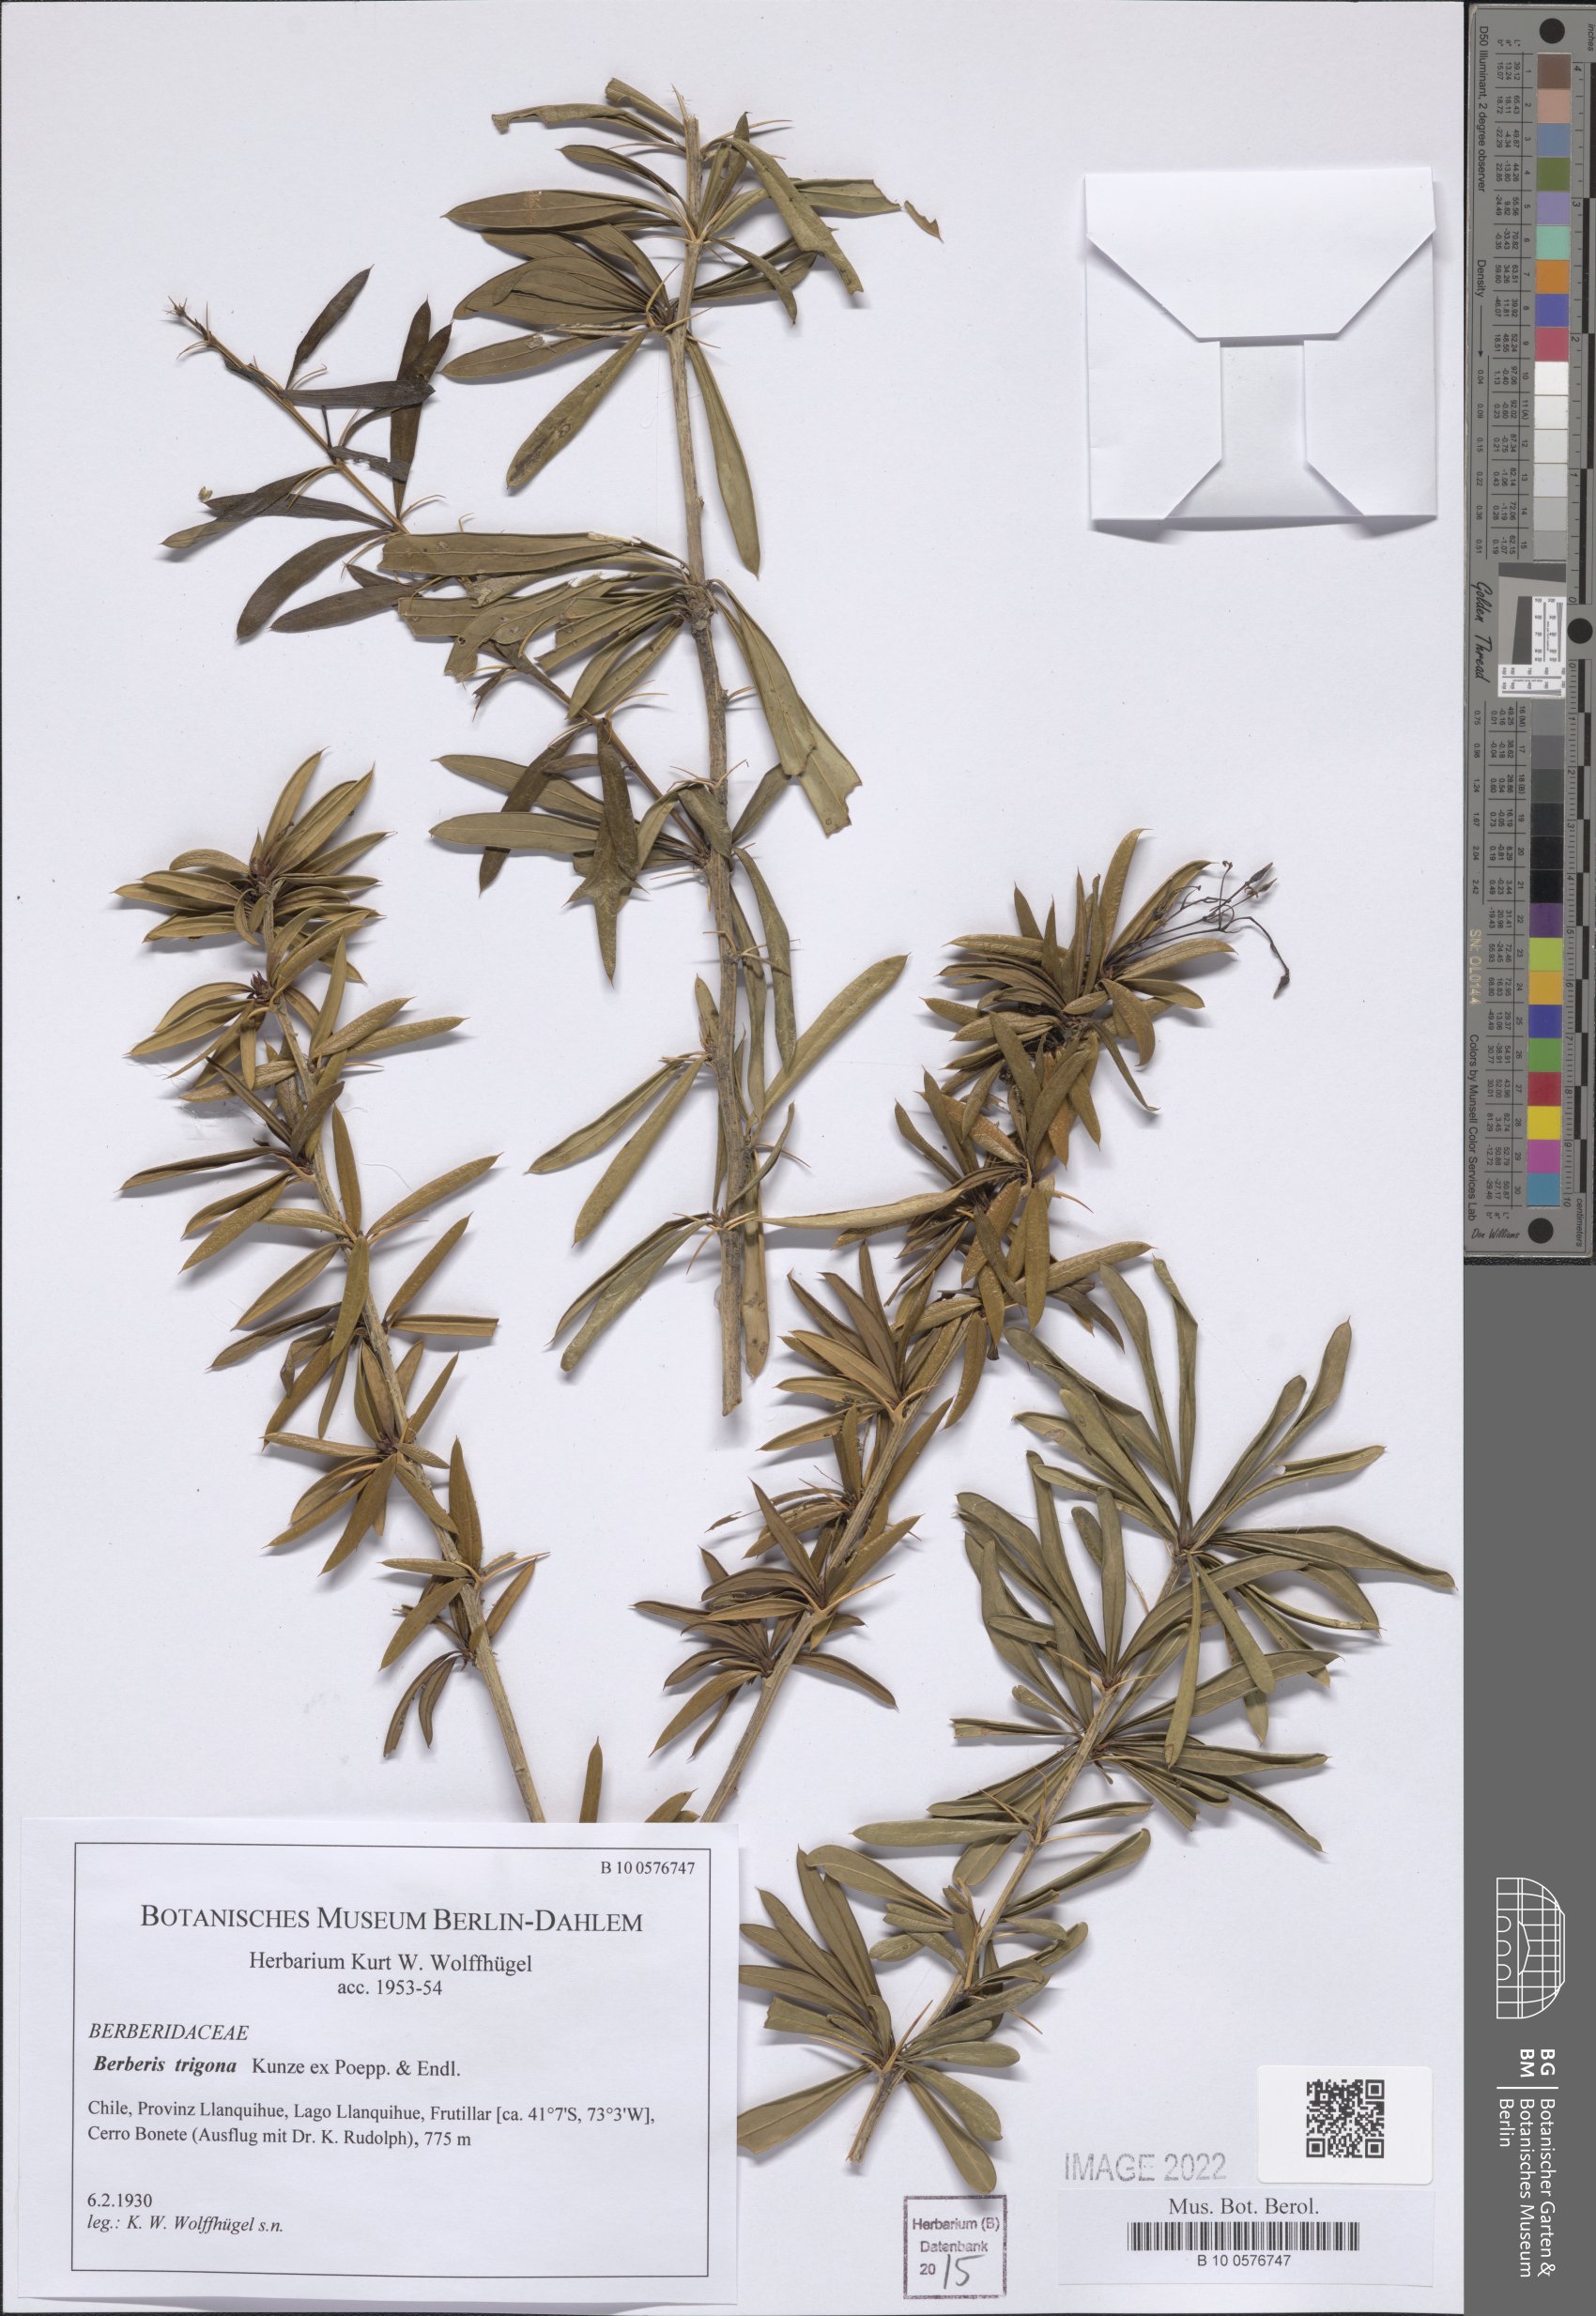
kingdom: Plantae
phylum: Tracheophyta
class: Magnoliopsida
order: Ranunculales
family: Berberidaceae
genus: Berberis
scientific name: Berberis trigona
